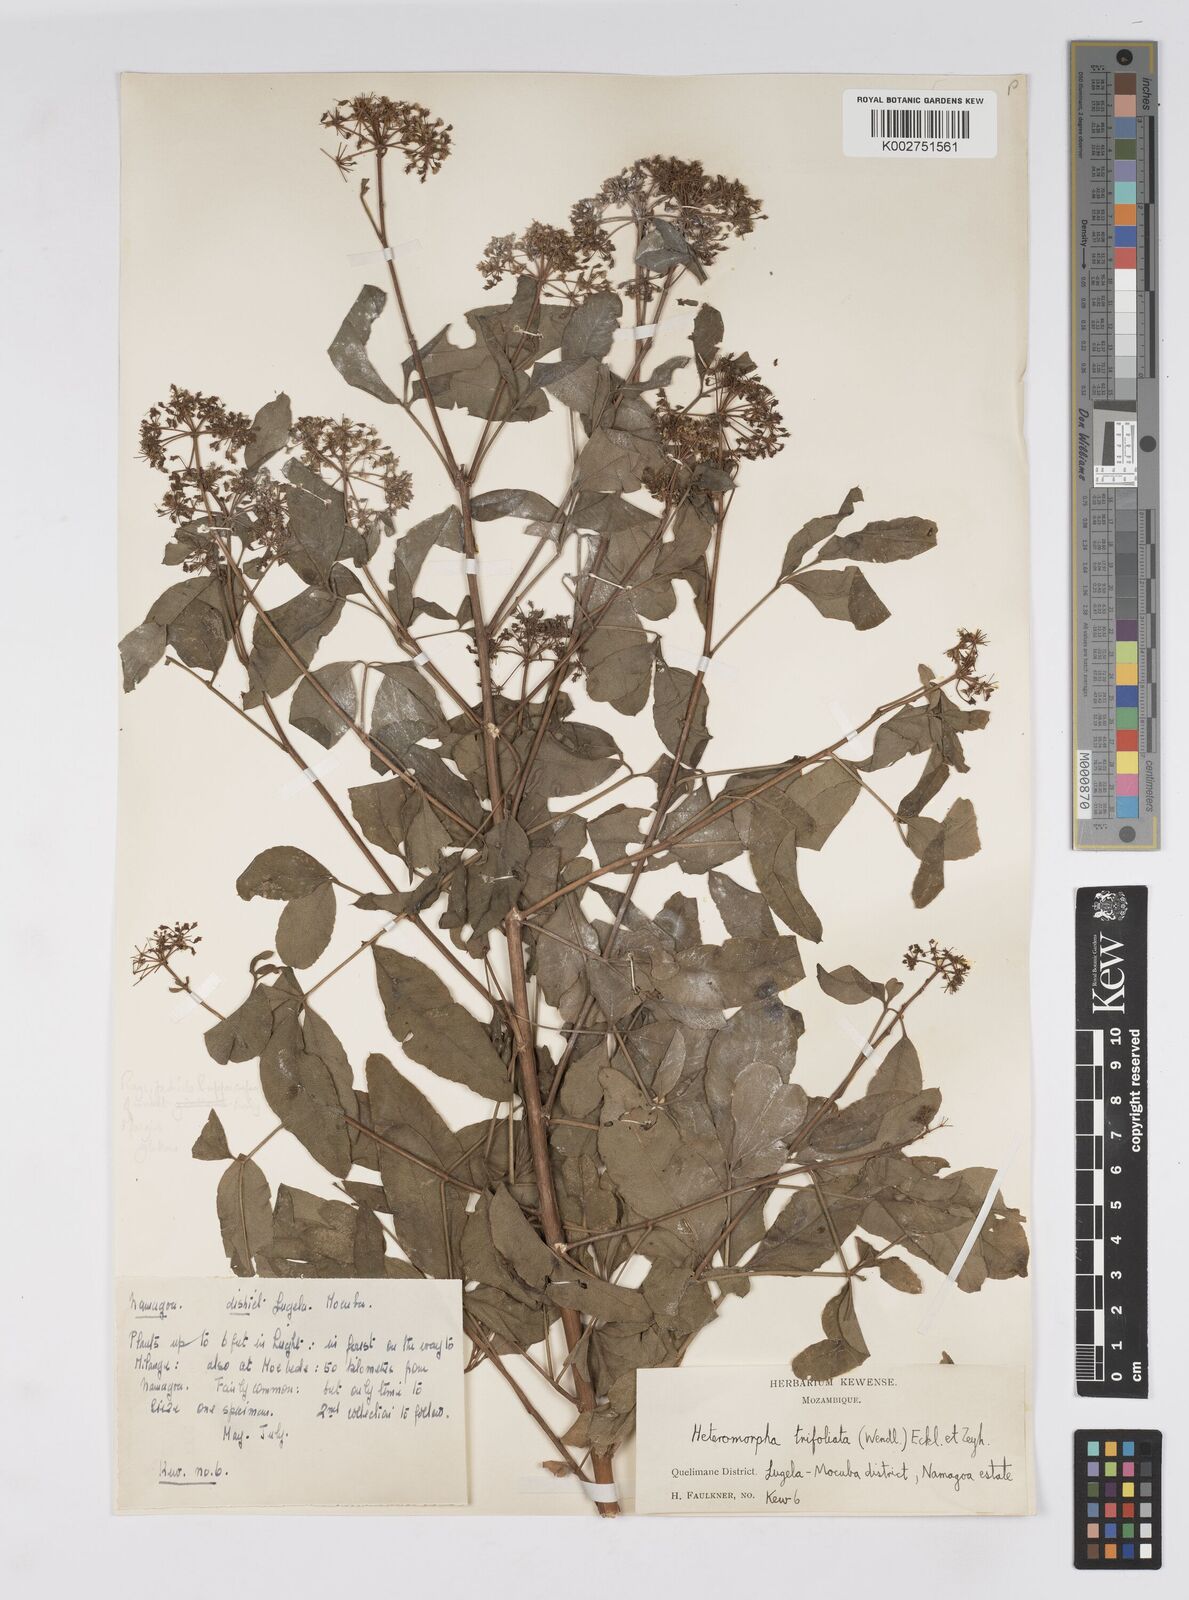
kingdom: Plantae
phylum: Tracheophyta
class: Magnoliopsida
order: Apiales
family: Apiaceae
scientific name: Apiaceae
